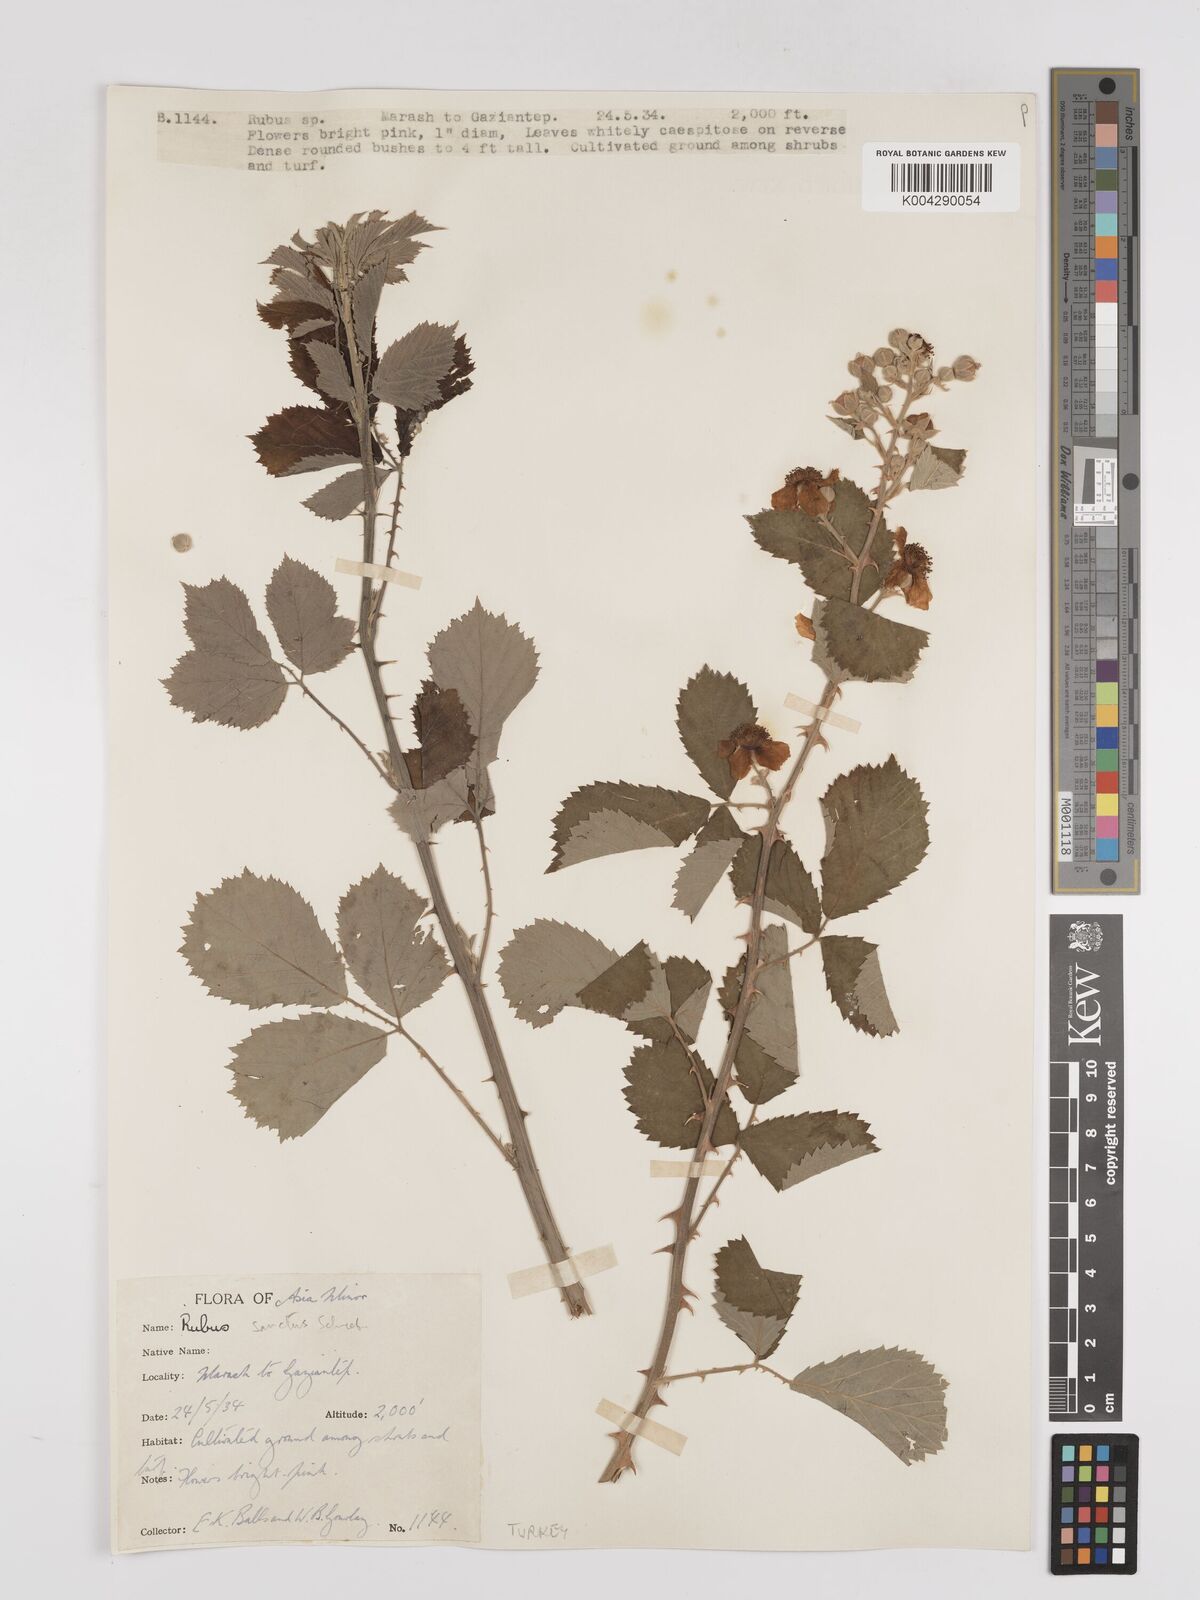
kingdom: Plantae
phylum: Tracheophyta
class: Magnoliopsida
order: Rosales
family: Rosaceae
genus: Rubus
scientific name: Rubus sanctus
